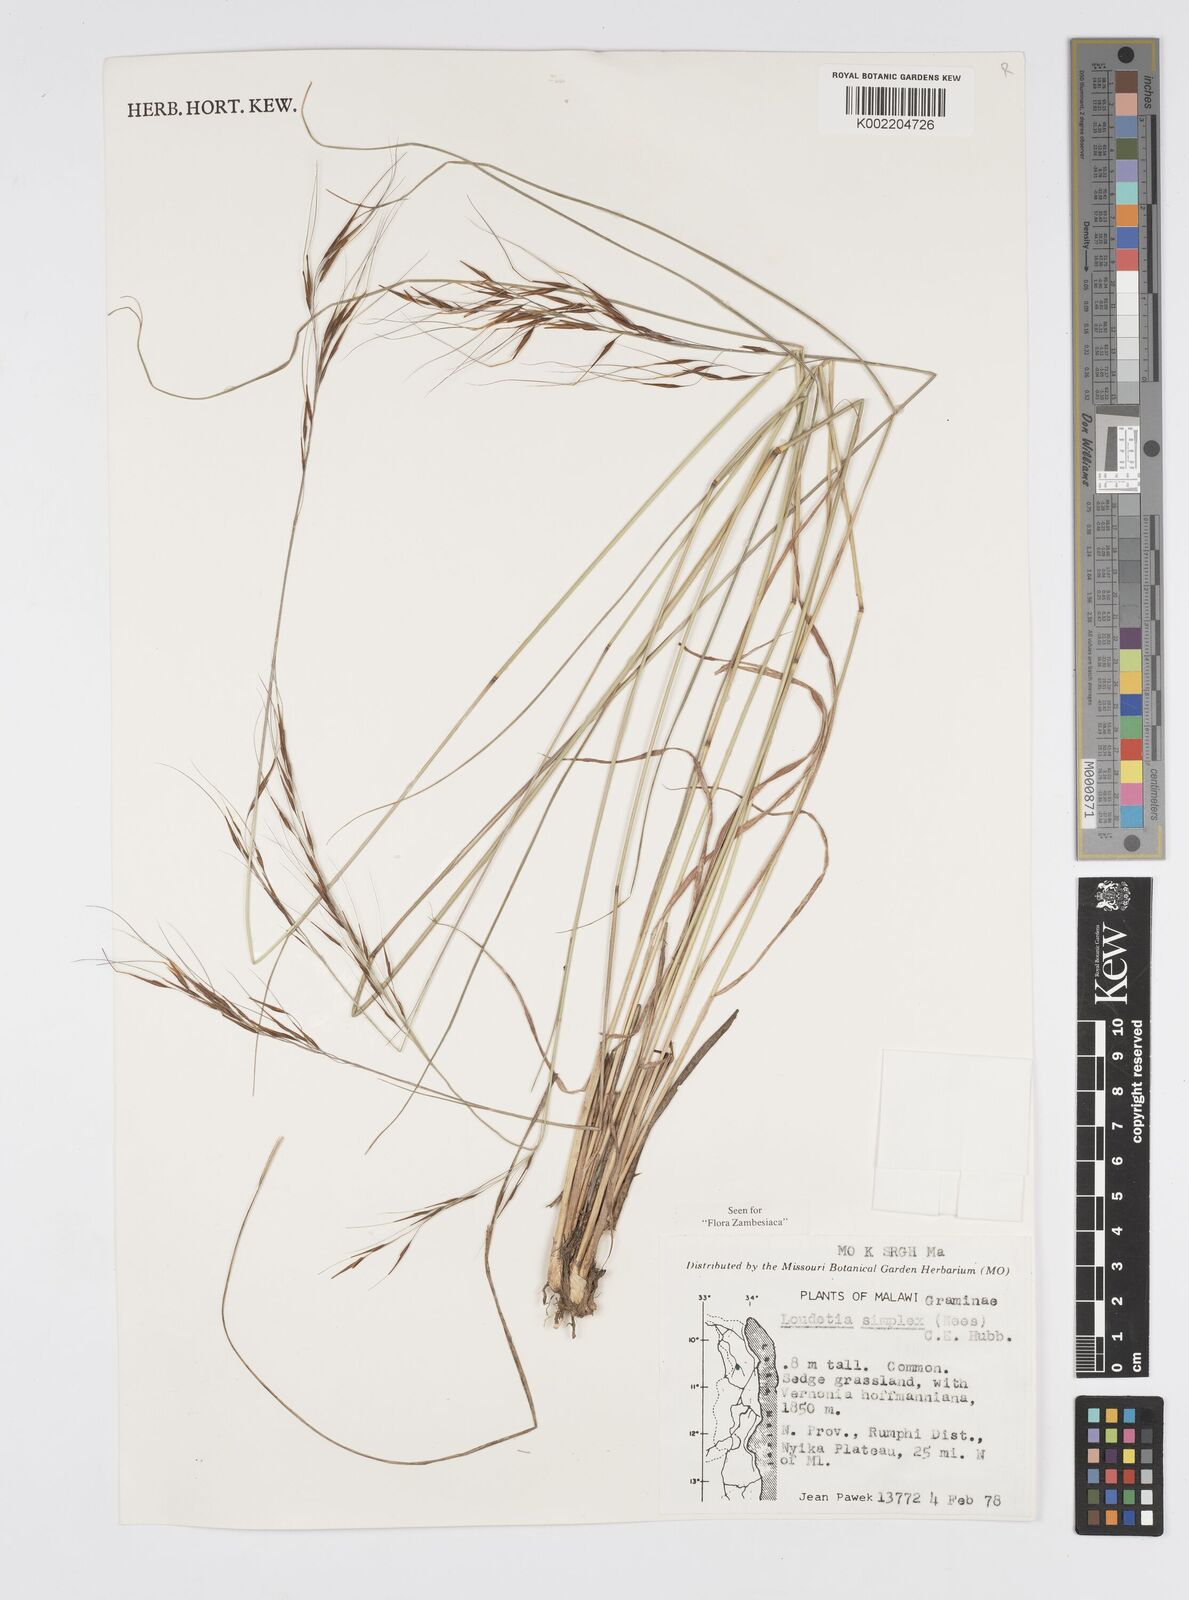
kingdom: Plantae
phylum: Tracheophyta
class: Liliopsida
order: Poales
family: Poaceae
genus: Loudetia
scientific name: Loudetia simplex
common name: Common russet grass
